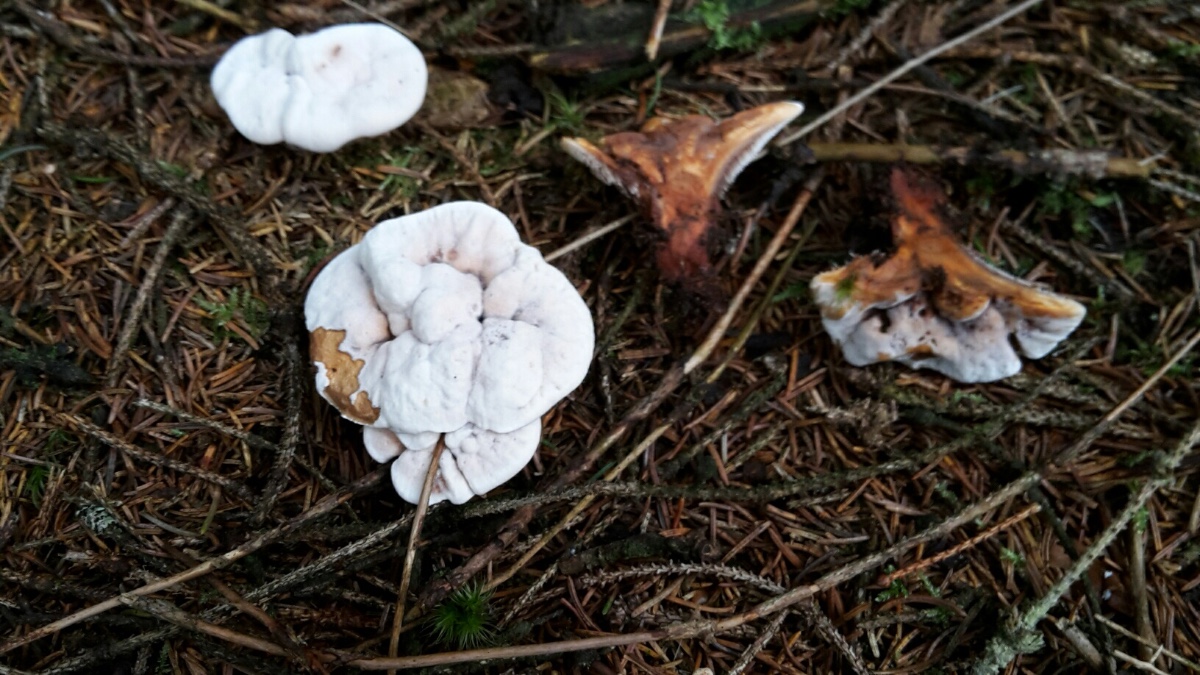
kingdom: Fungi
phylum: Basidiomycota
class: Agaricomycetes
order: Thelephorales
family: Bankeraceae
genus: Hydnellum
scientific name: Hydnellum aurantiacum
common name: orange korkpigsvamp
